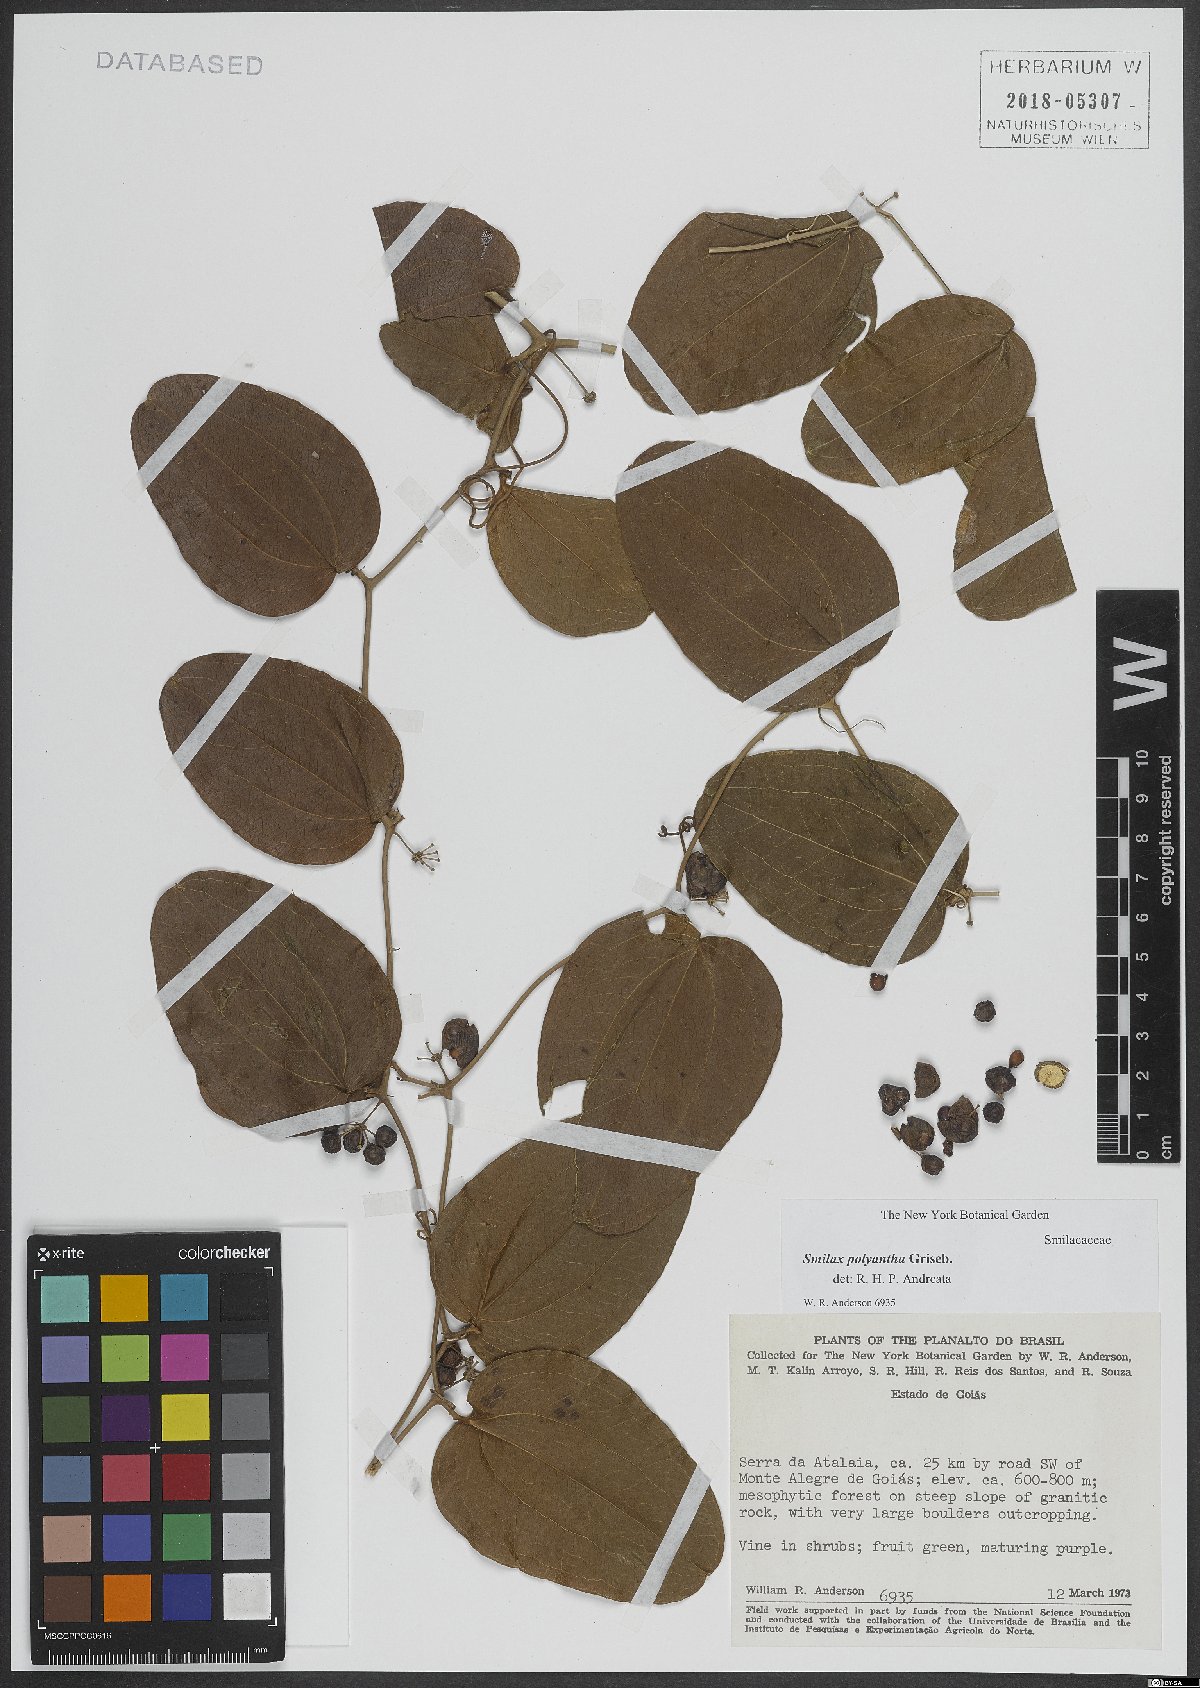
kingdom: Plantae
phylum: Tracheophyta
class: Liliopsida
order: Liliales
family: Smilacaceae
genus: Smilax
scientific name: Smilax polyantha
